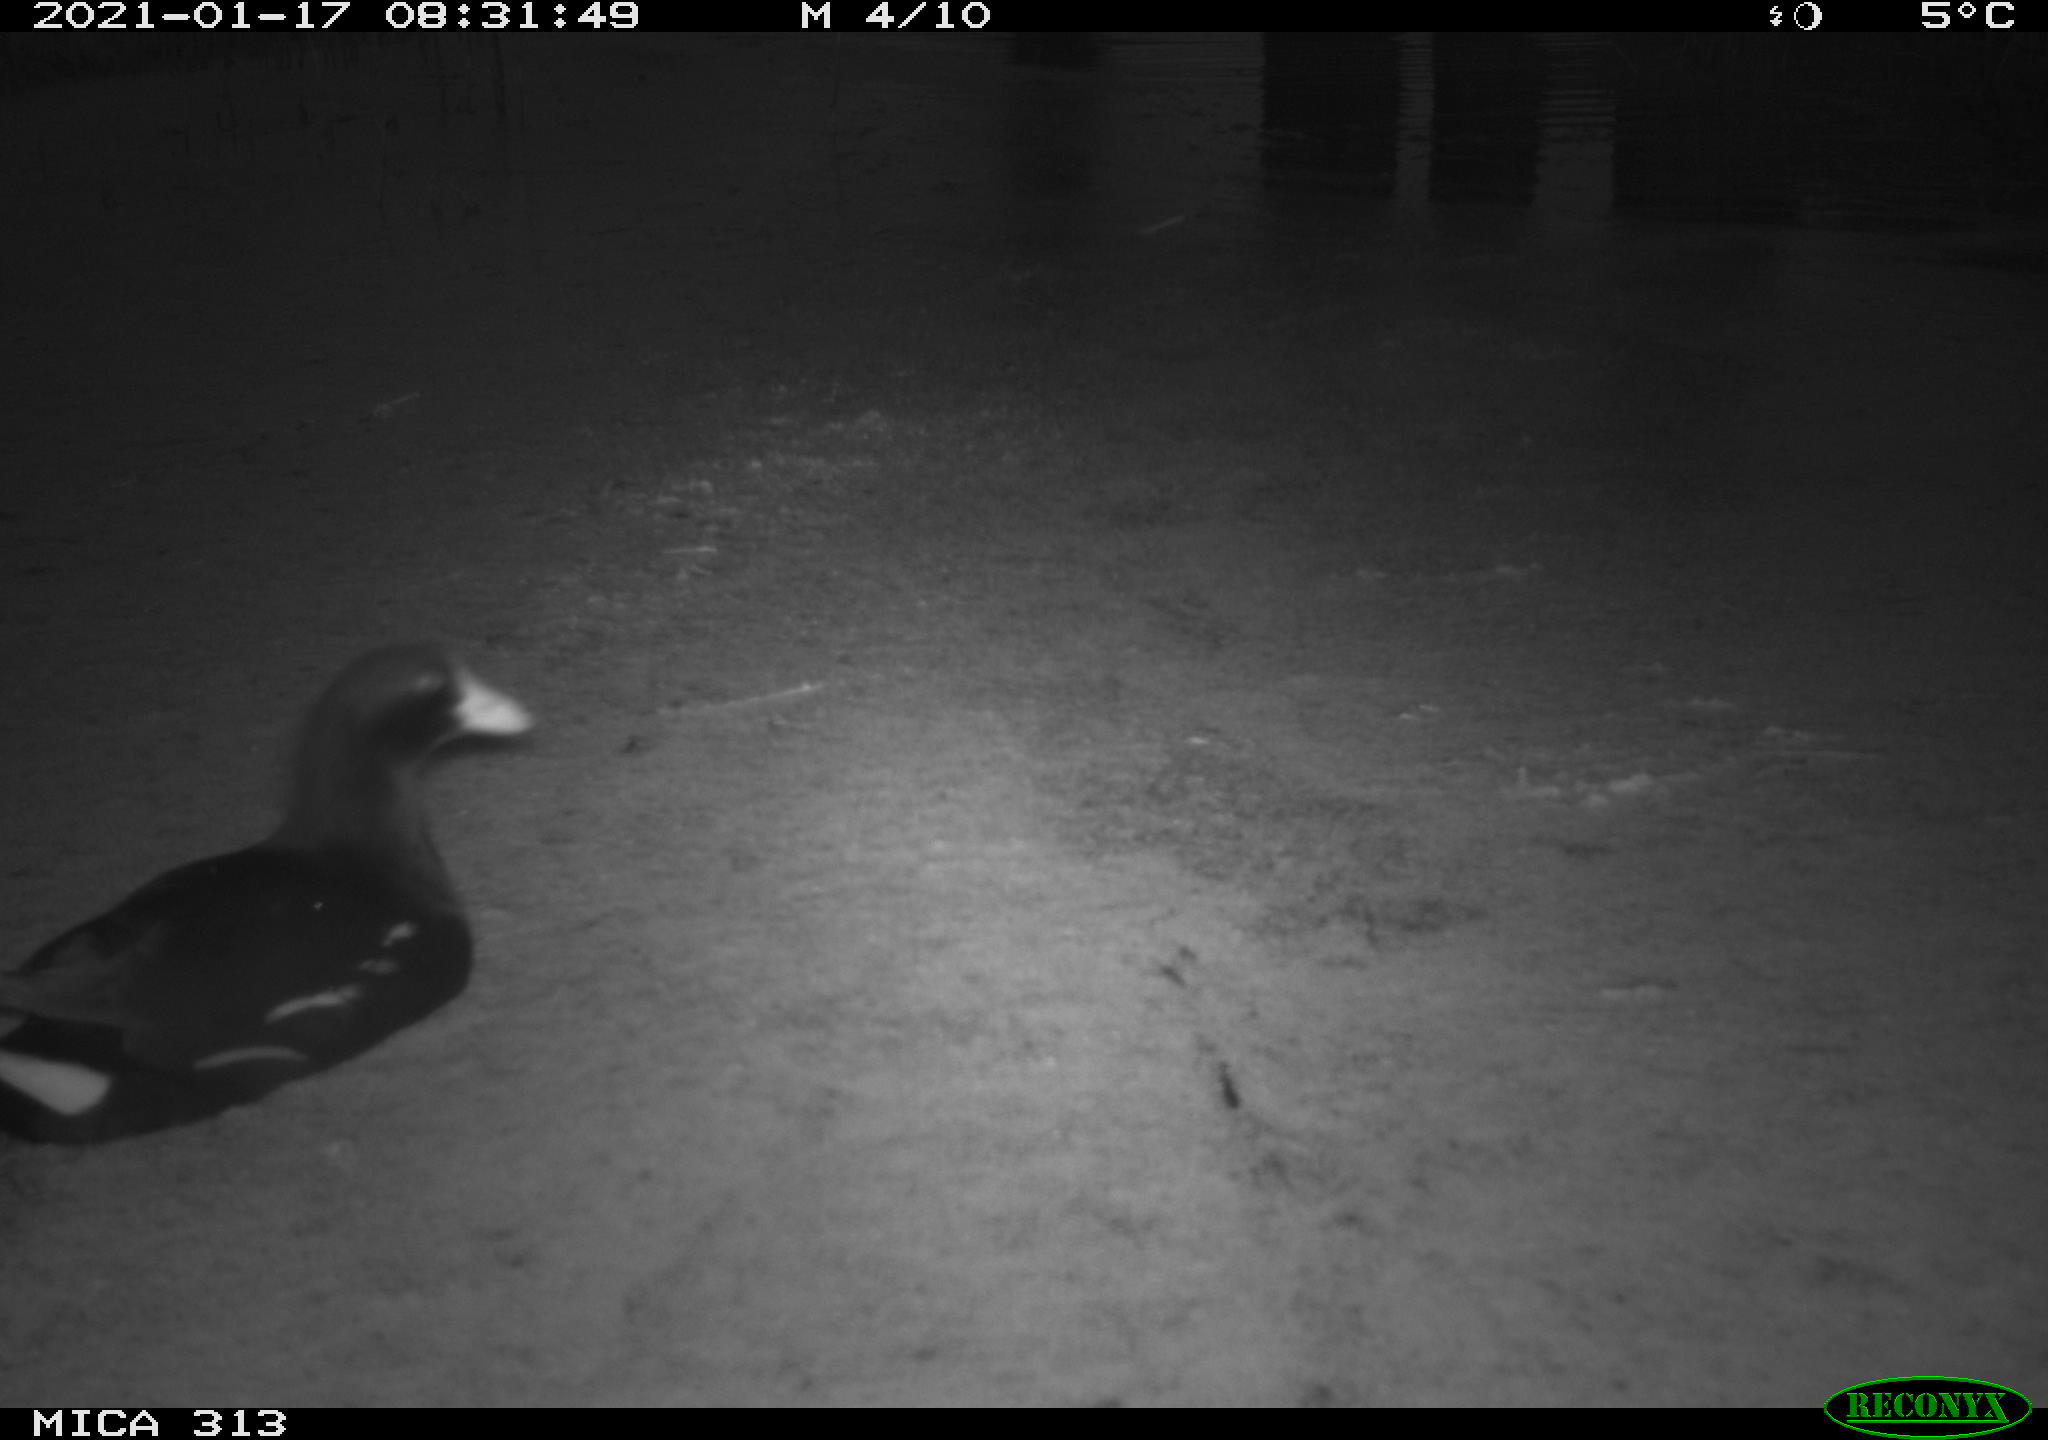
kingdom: Animalia
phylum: Chordata
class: Aves
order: Gruiformes
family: Rallidae
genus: Gallinula
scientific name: Gallinula chloropus
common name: Common moorhen
